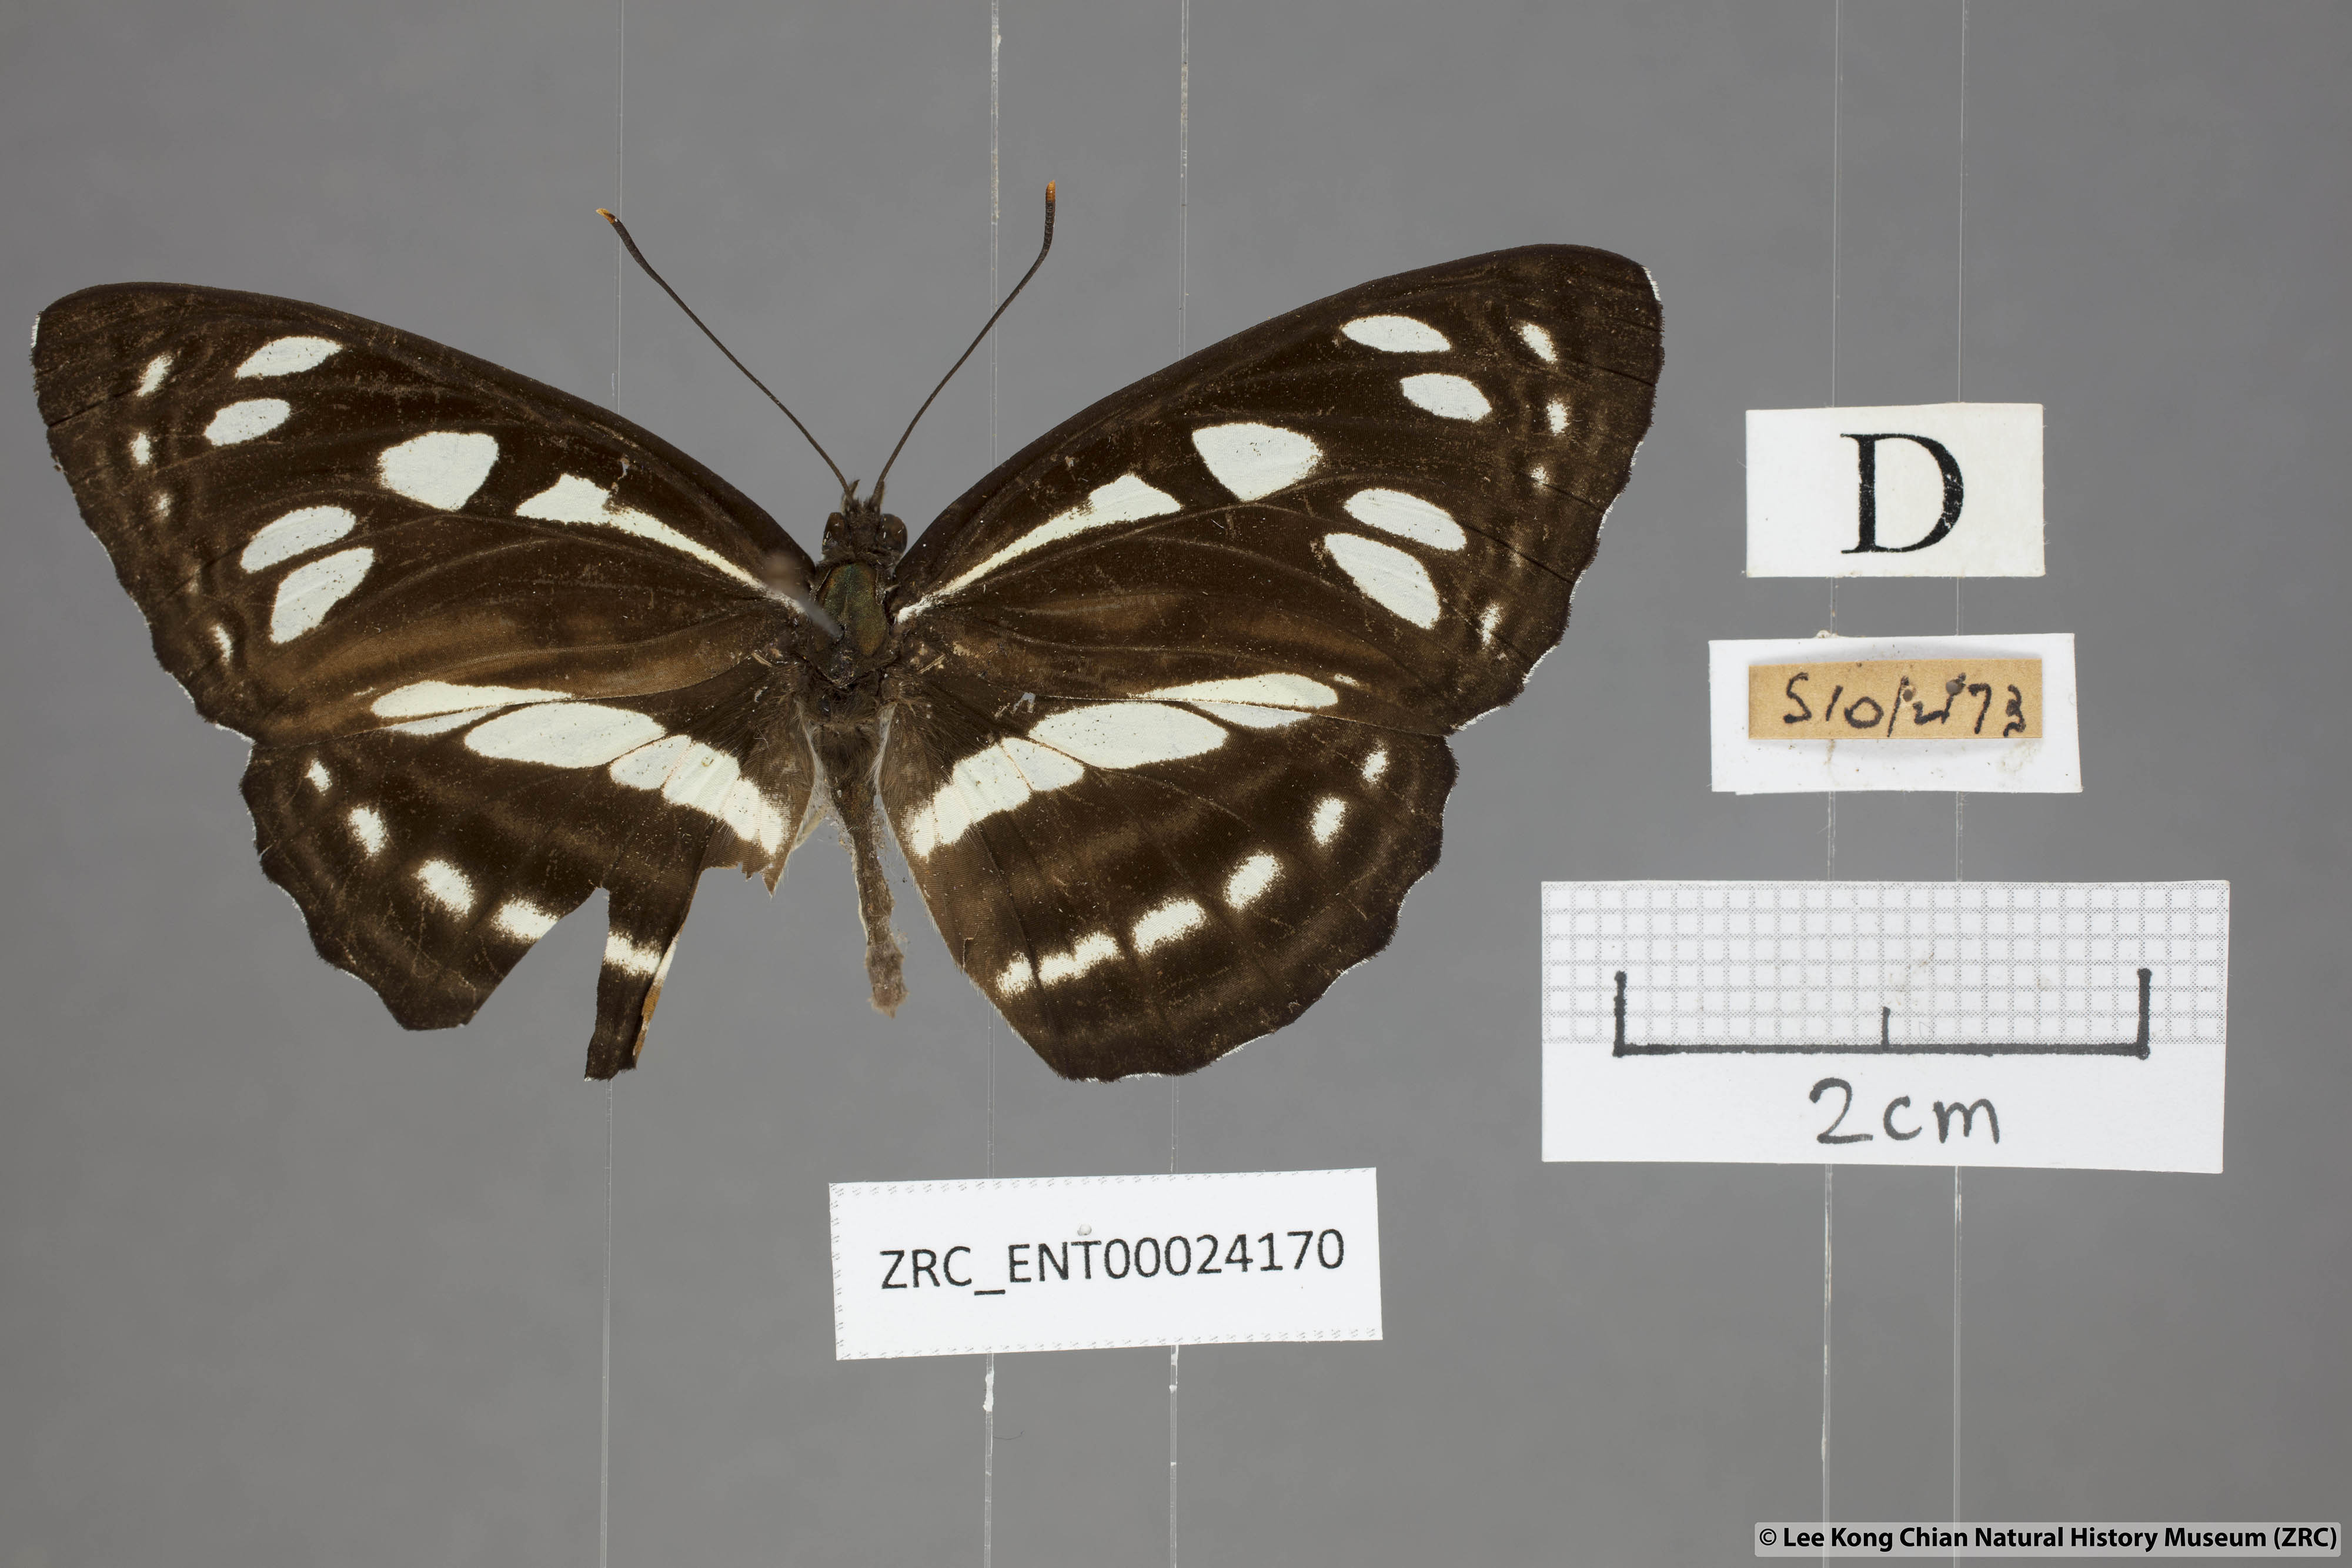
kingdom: Animalia
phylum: Arthropoda
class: Insecta
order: Lepidoptera
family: Nymphalidae
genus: Phaedyma
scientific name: Phaedyma columella
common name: Short banded sailer
